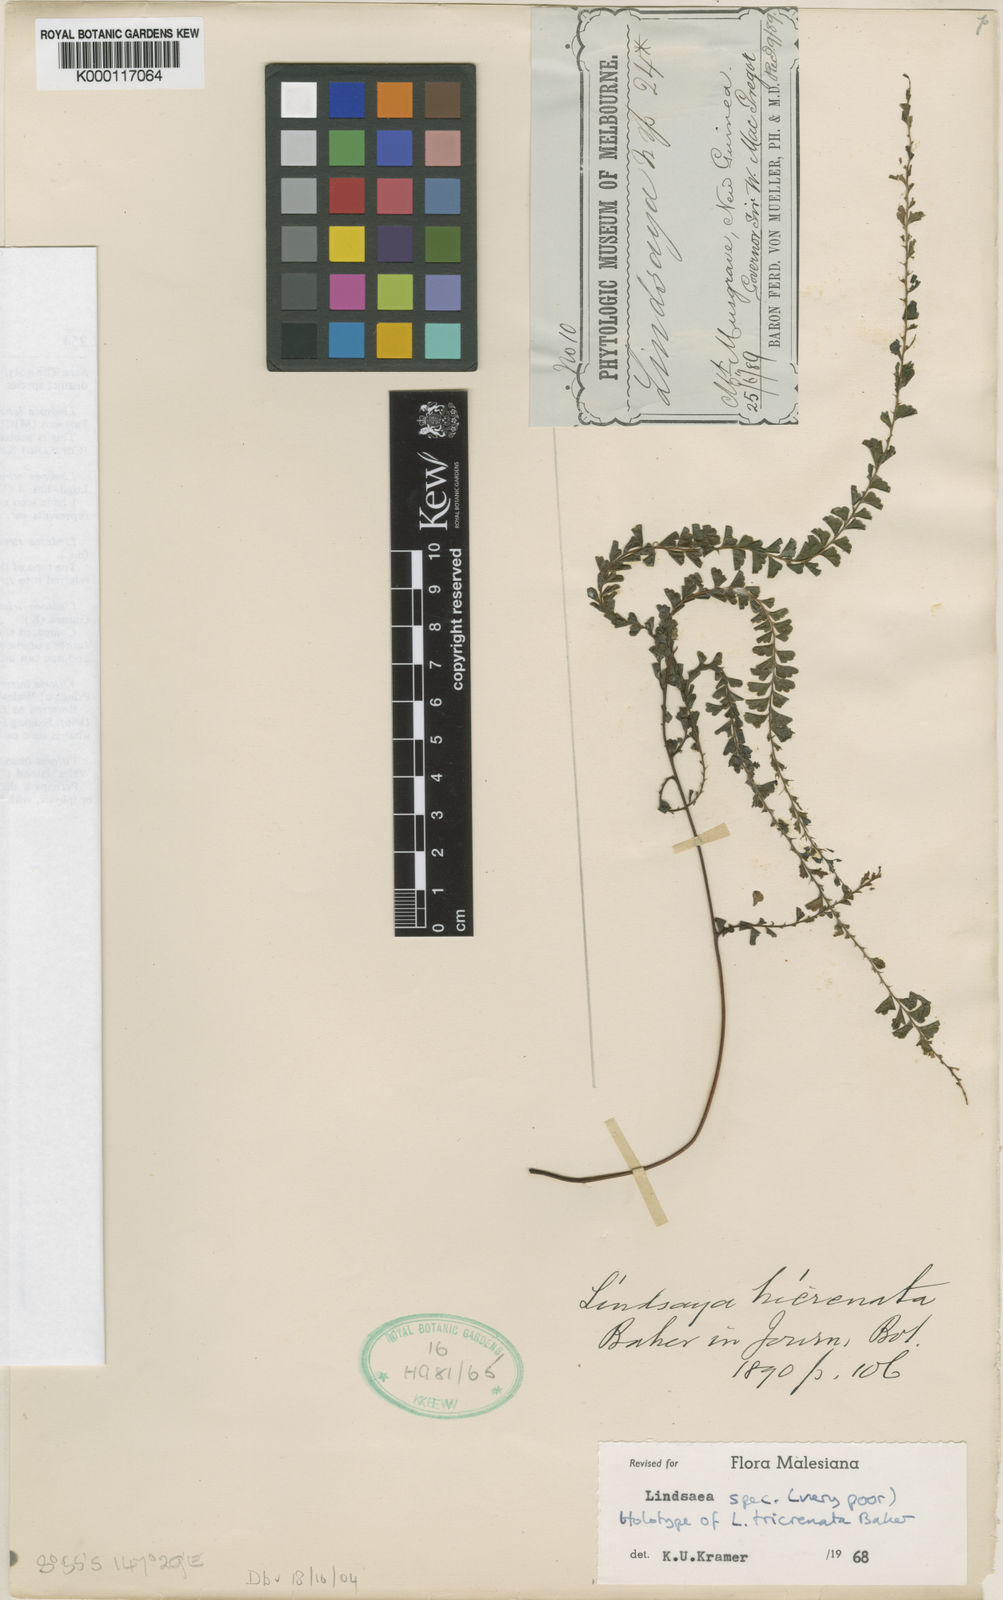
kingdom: Plantae
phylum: Tracheophyta
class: Polypodiopsida
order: Polypodiales
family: Lindsaeaceae
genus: Lindsaea
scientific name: Lindsaea tricrenata
